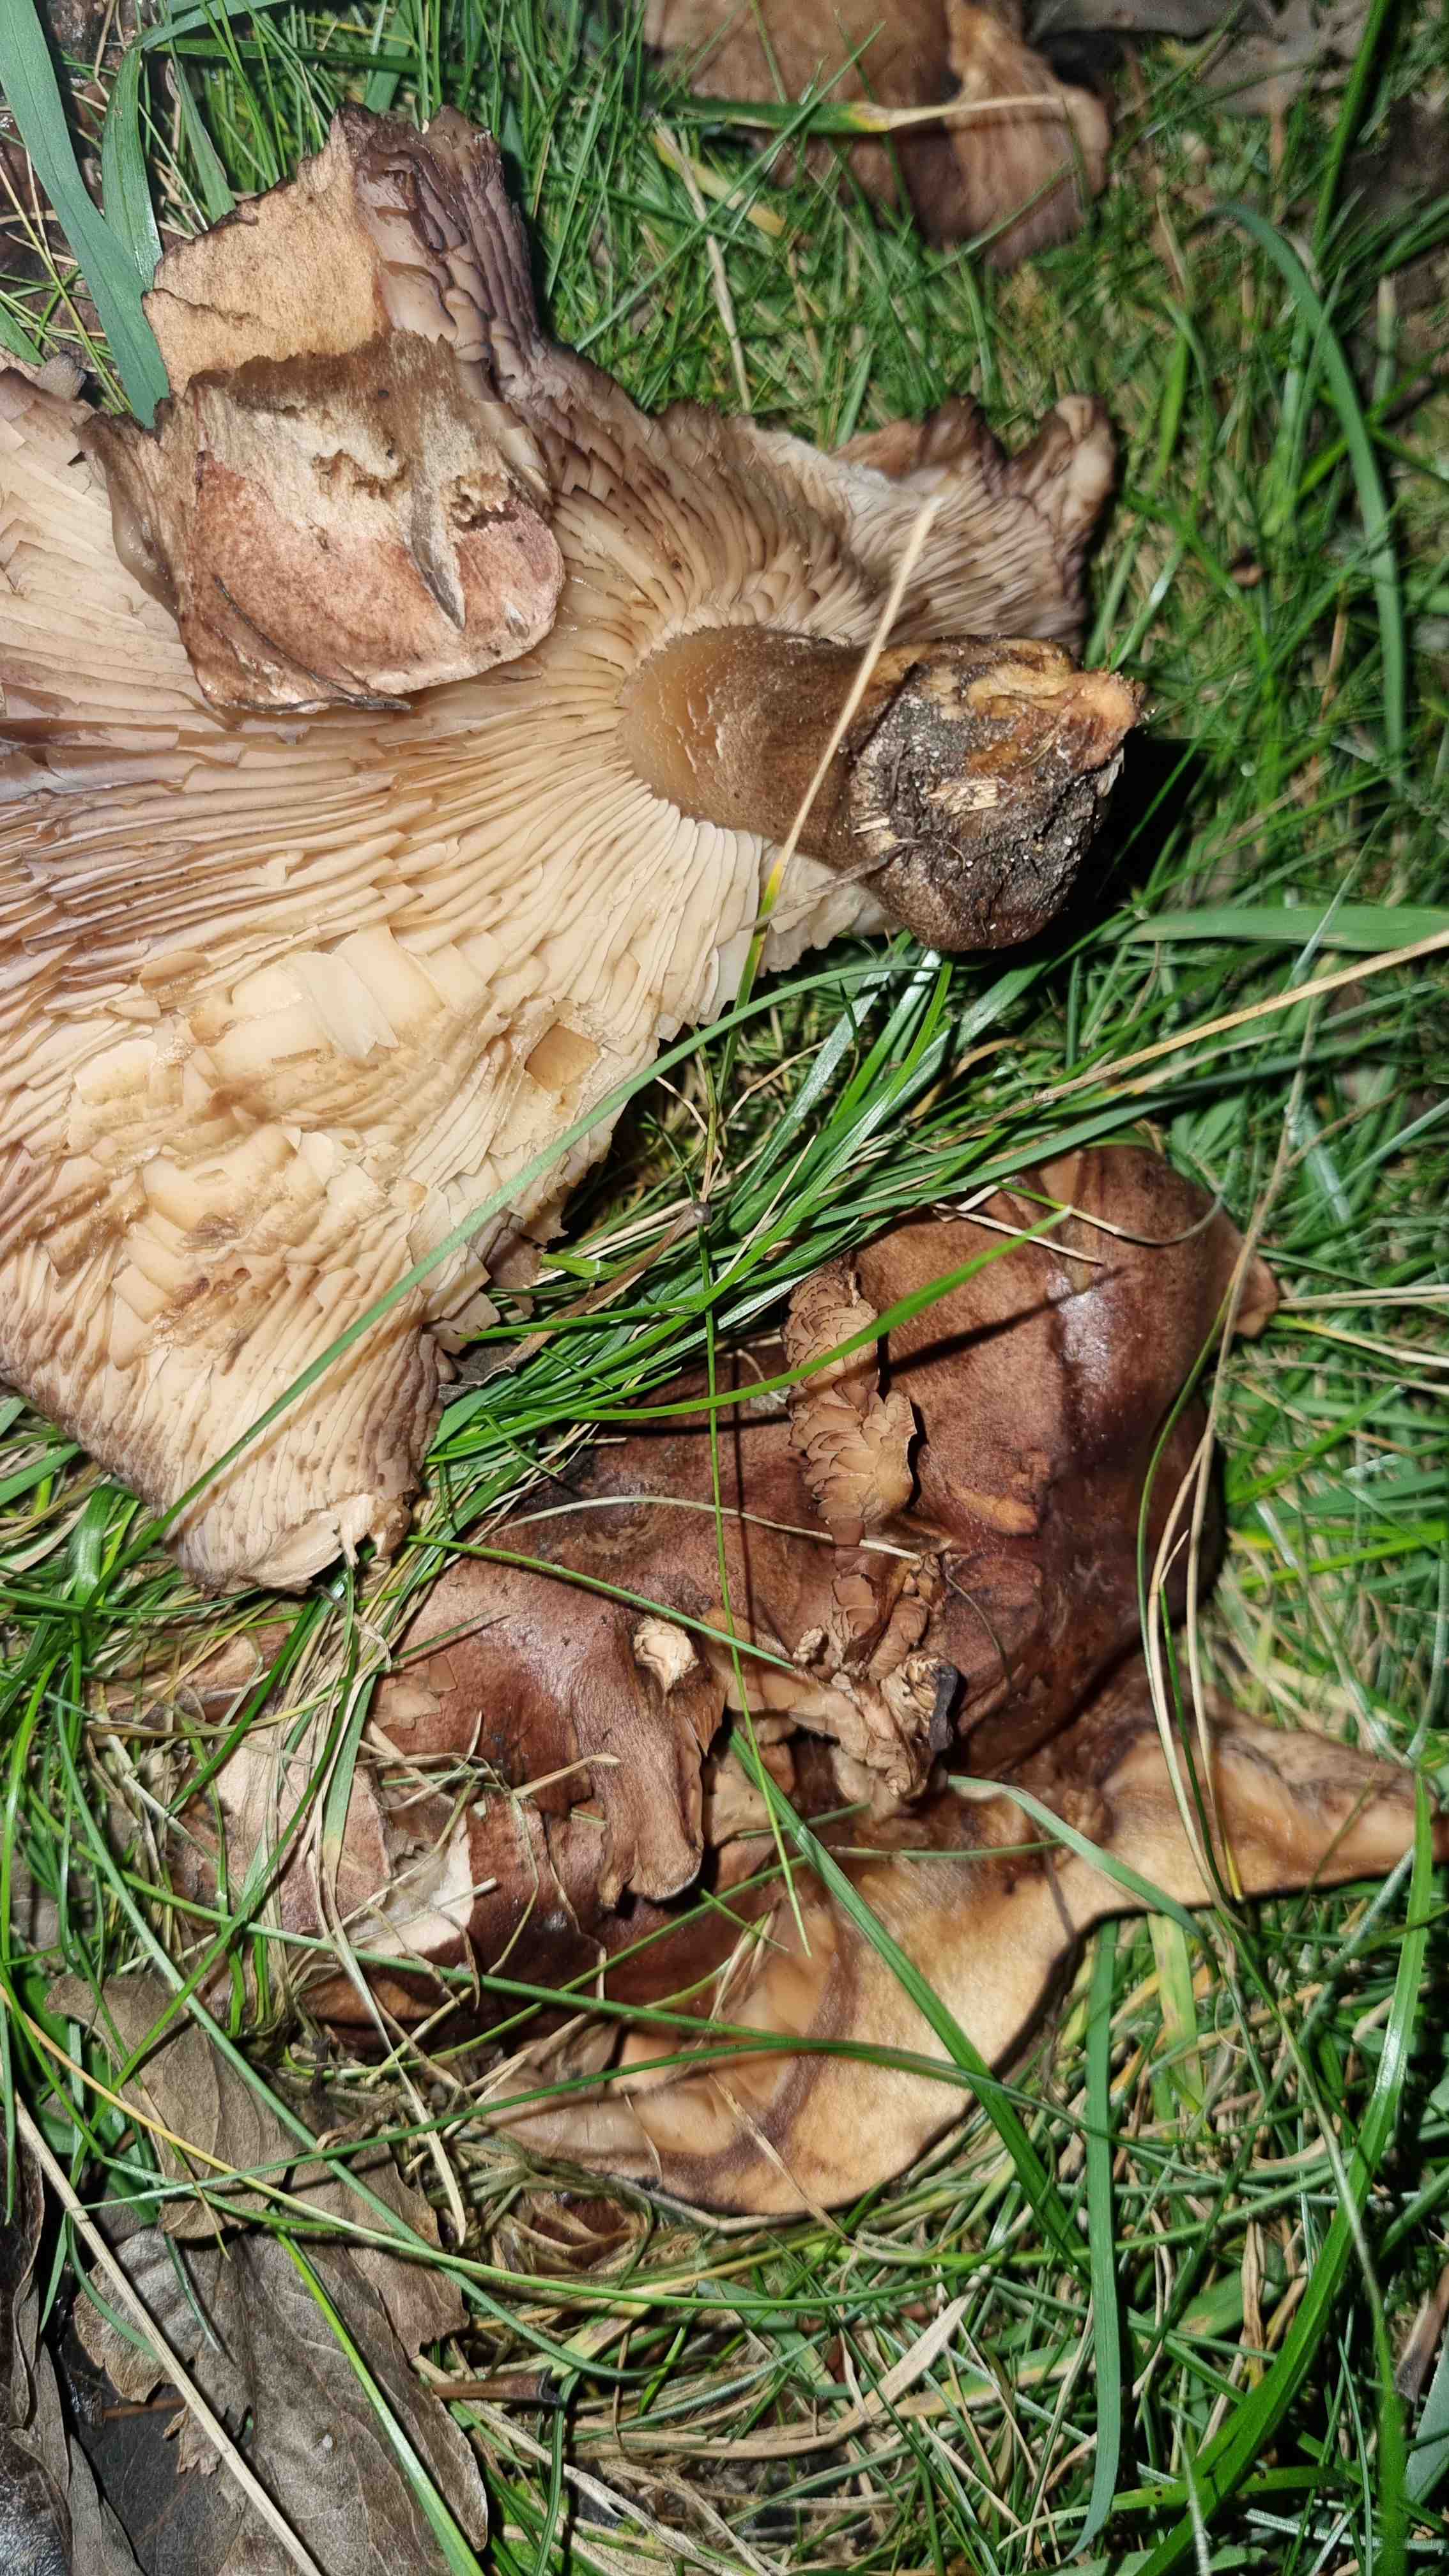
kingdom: Fungi
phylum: Basidiomycota
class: Agaricomycetes
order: Agaricales
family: Tricholomataceae
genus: Tricholoma
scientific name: Tricholoma populinum
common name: poppel-ridderhat
